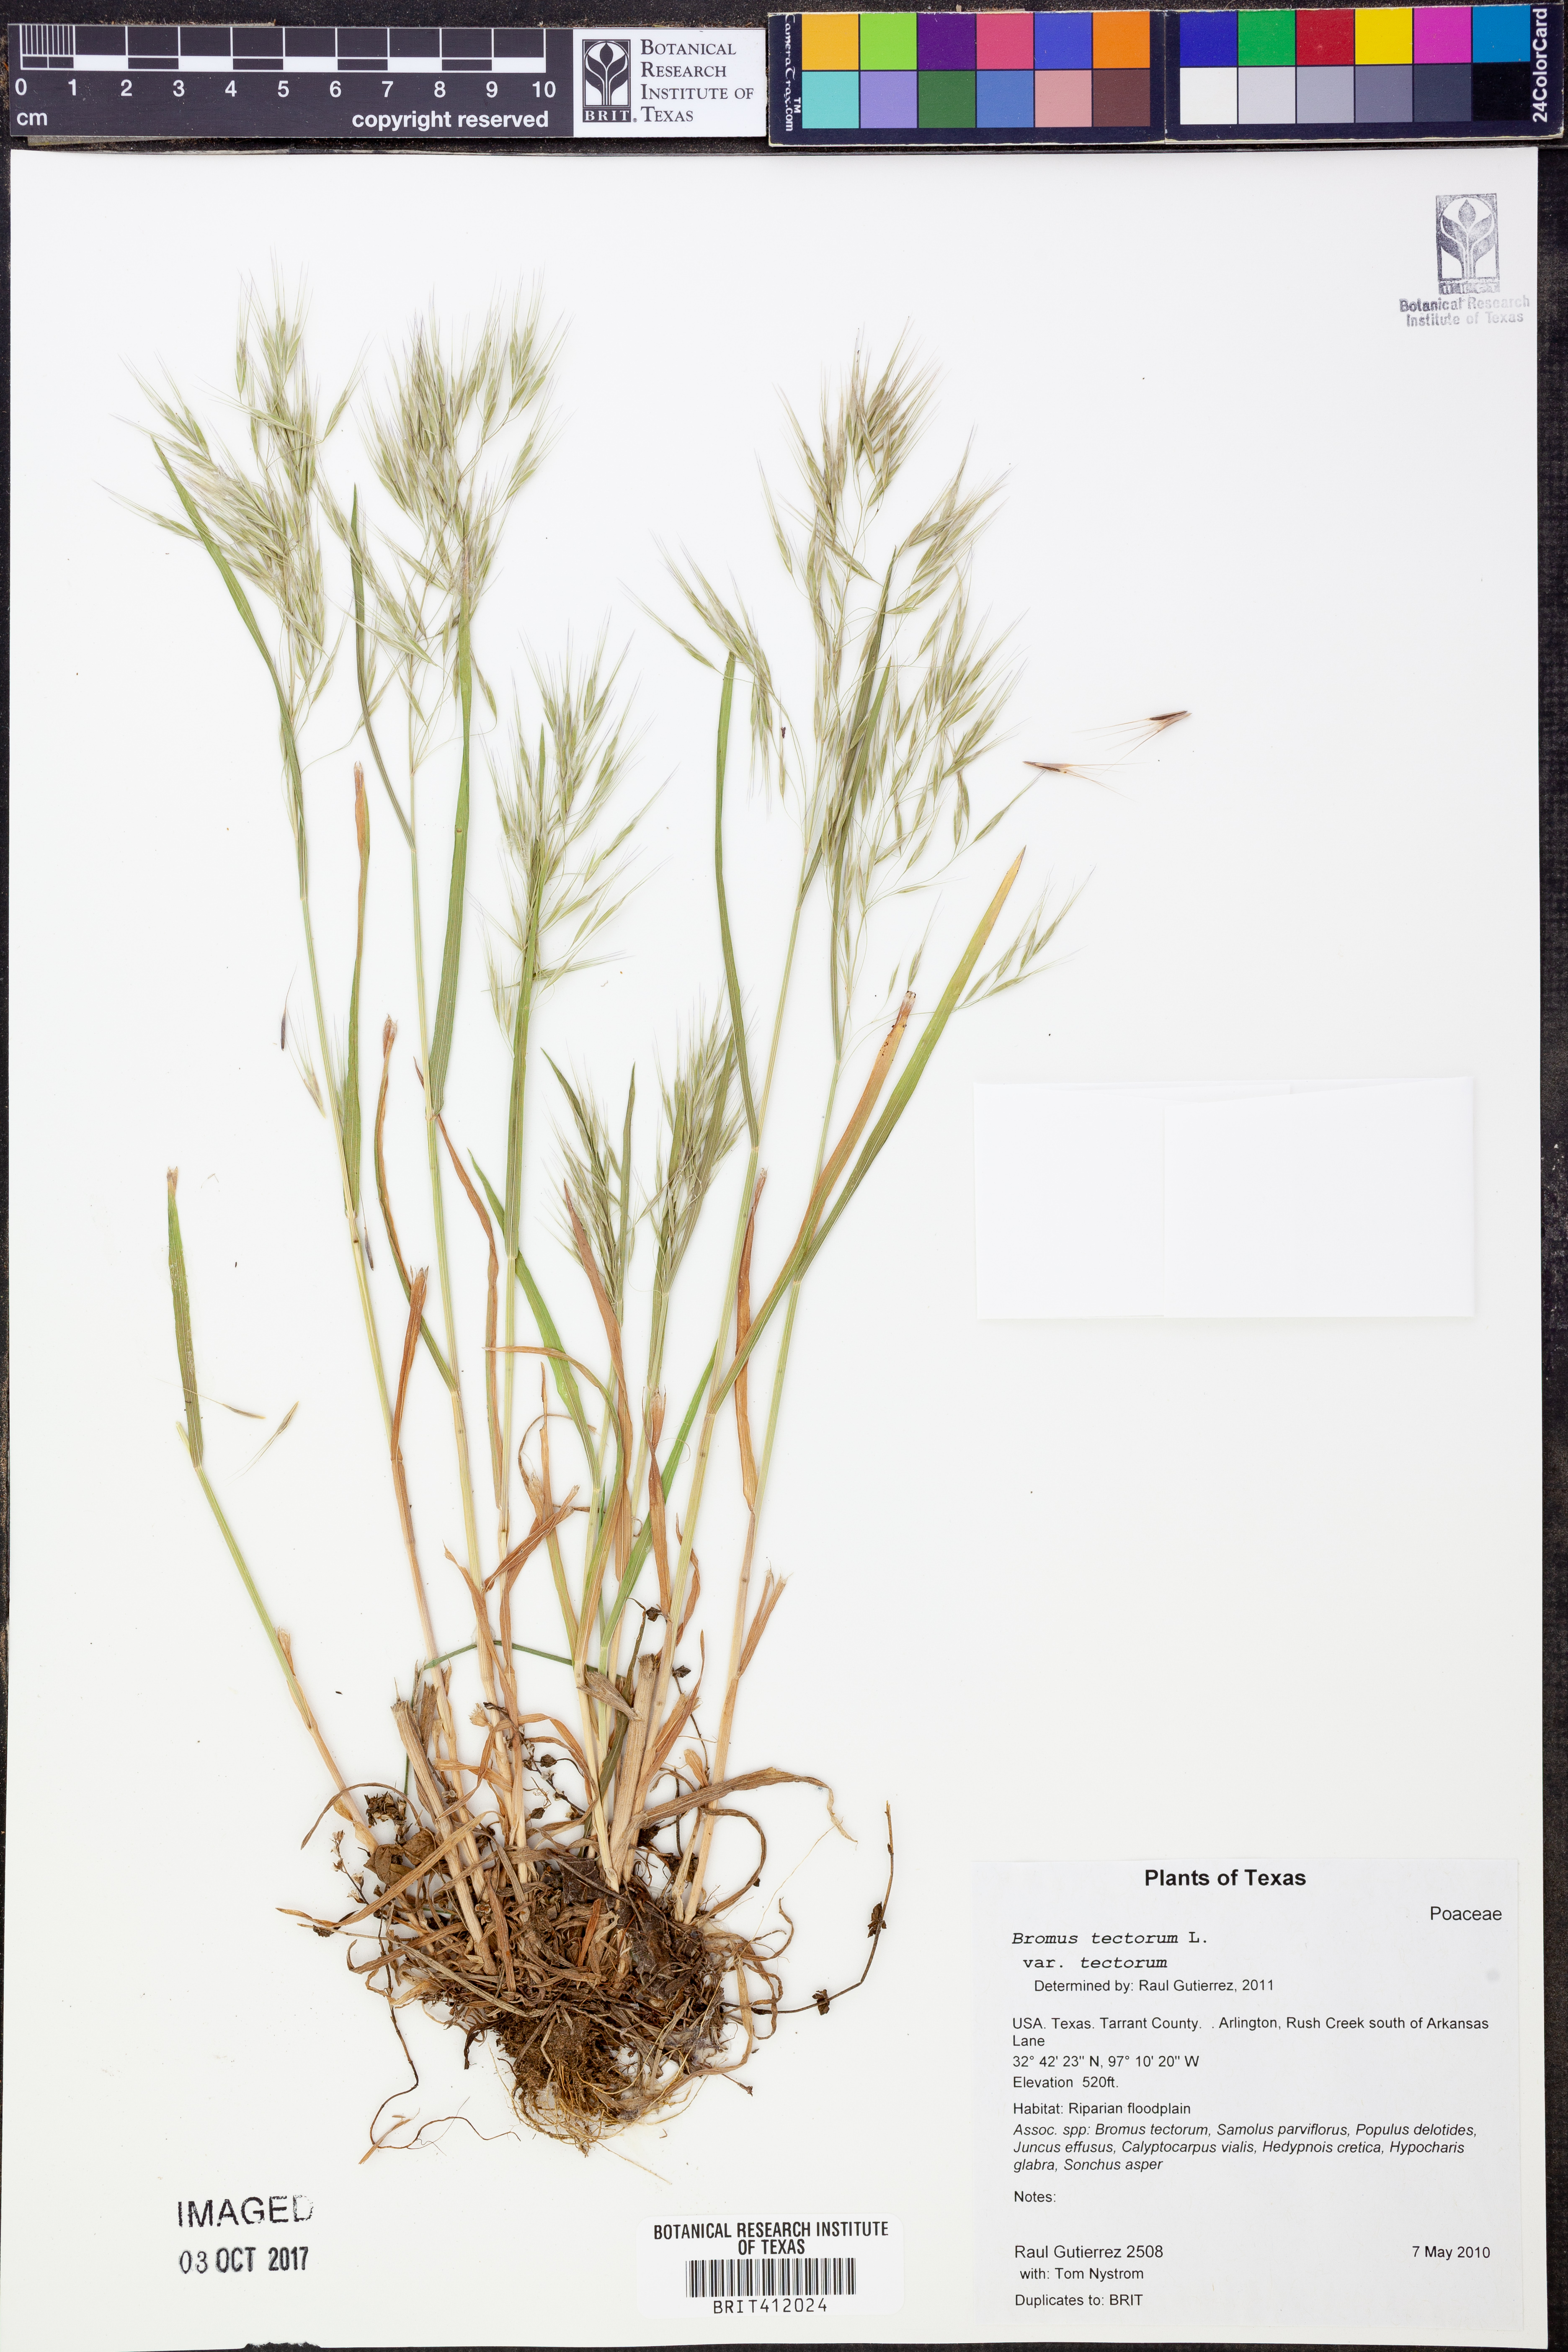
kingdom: Plantae
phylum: Tracheophyta
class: Liliopsida
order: Poales
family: Poaceae
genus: Bromus
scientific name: Bromus tectorum
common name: Cheatgrass
